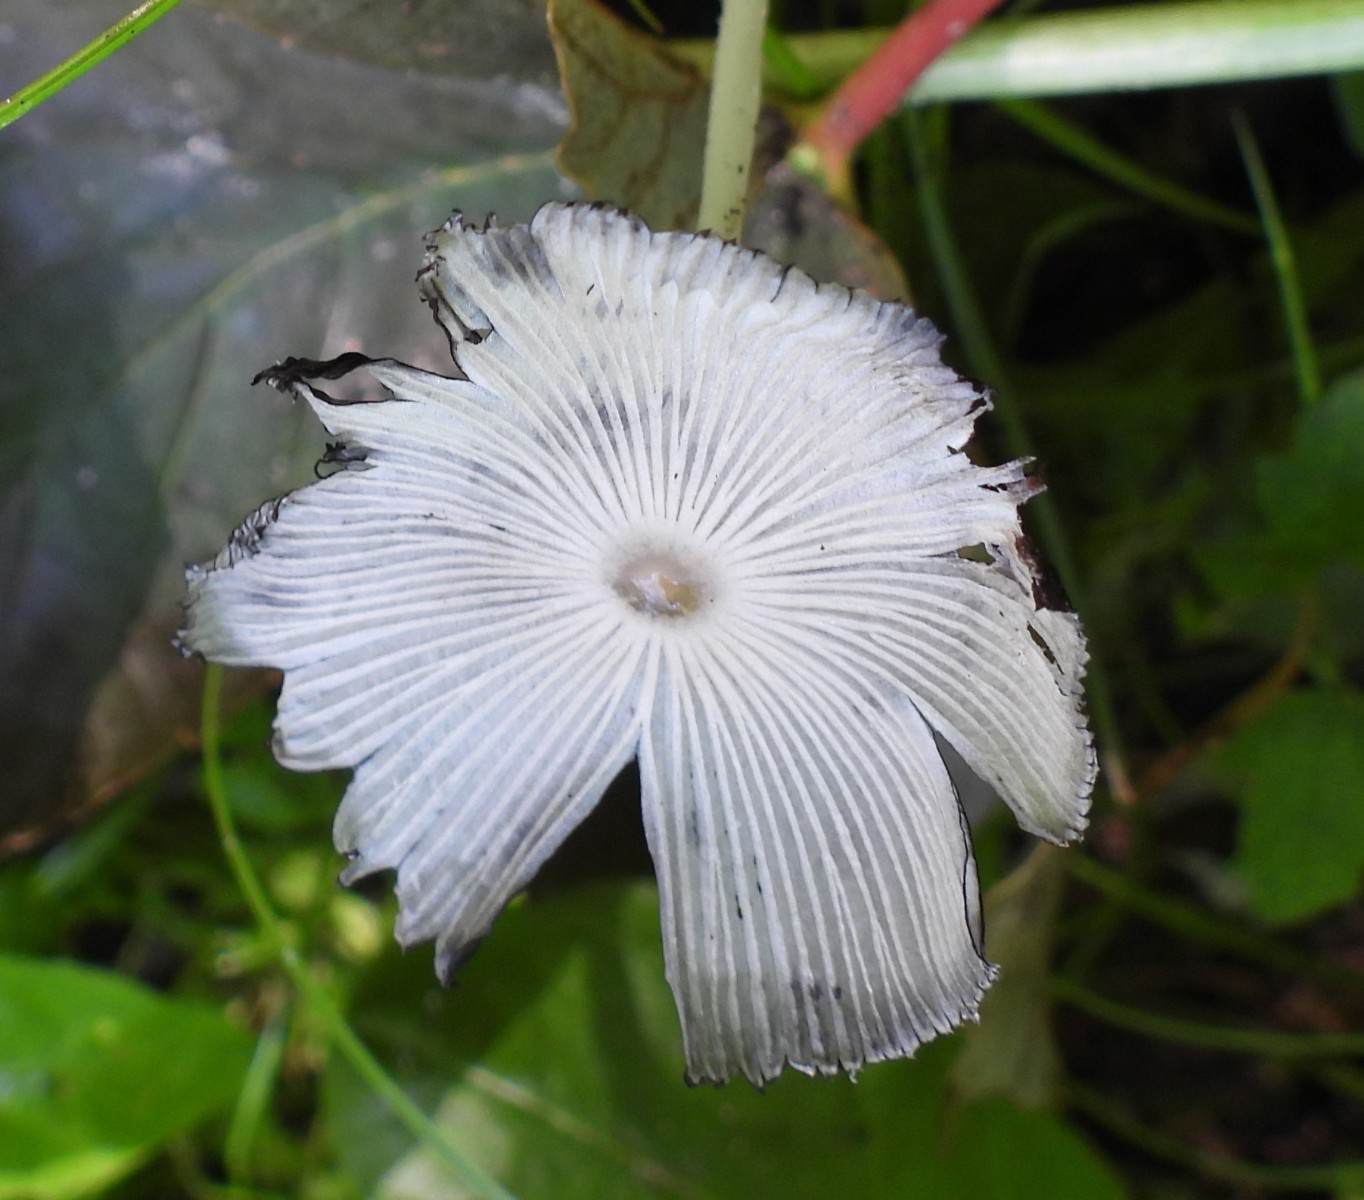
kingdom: Fungi
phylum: Basidiomycota
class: Agaricomycetes
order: Agaricales
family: Psathyrellaceae
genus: Coprinopsis
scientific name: Coprinopsis lagopus
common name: dunstokket blækhat
